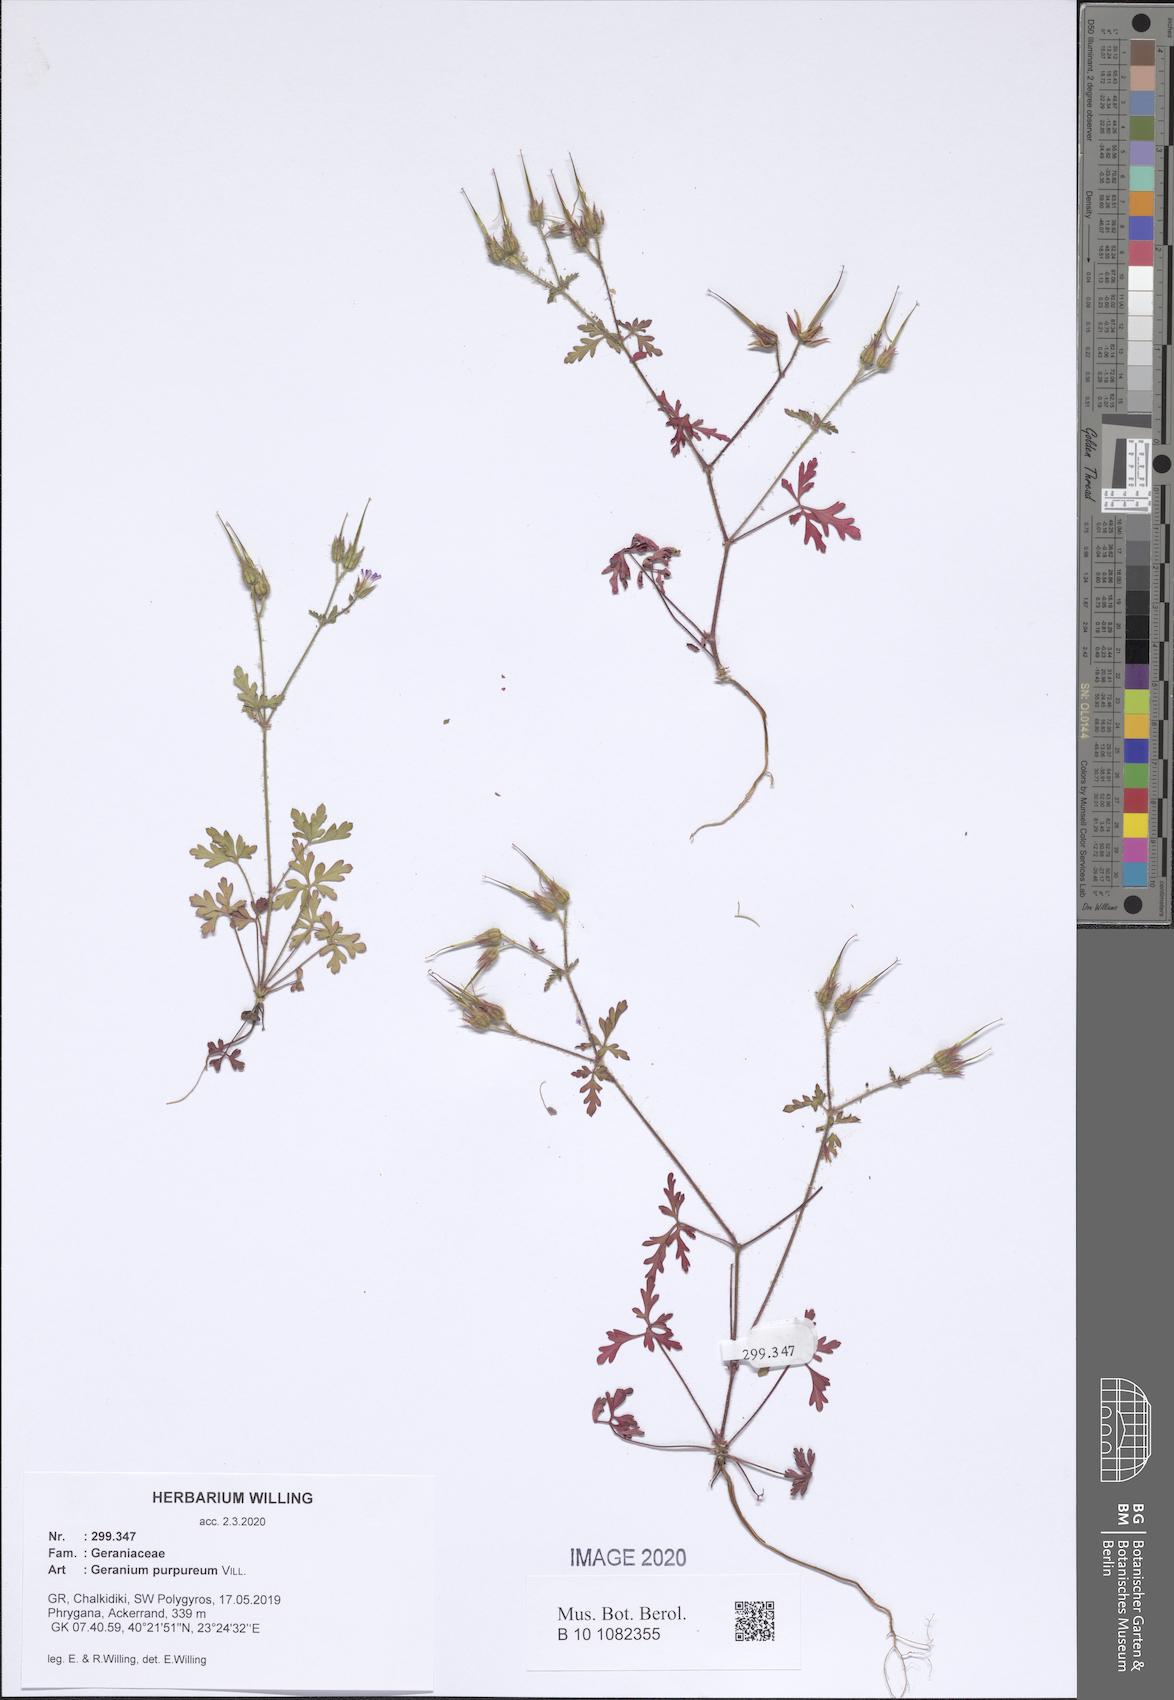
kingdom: Plantae
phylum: Tracheophyta
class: Magnoliopsida
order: Geraniales
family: Geraniaceae
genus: Geranium
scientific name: Geranium purpureum
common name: Little-robin
